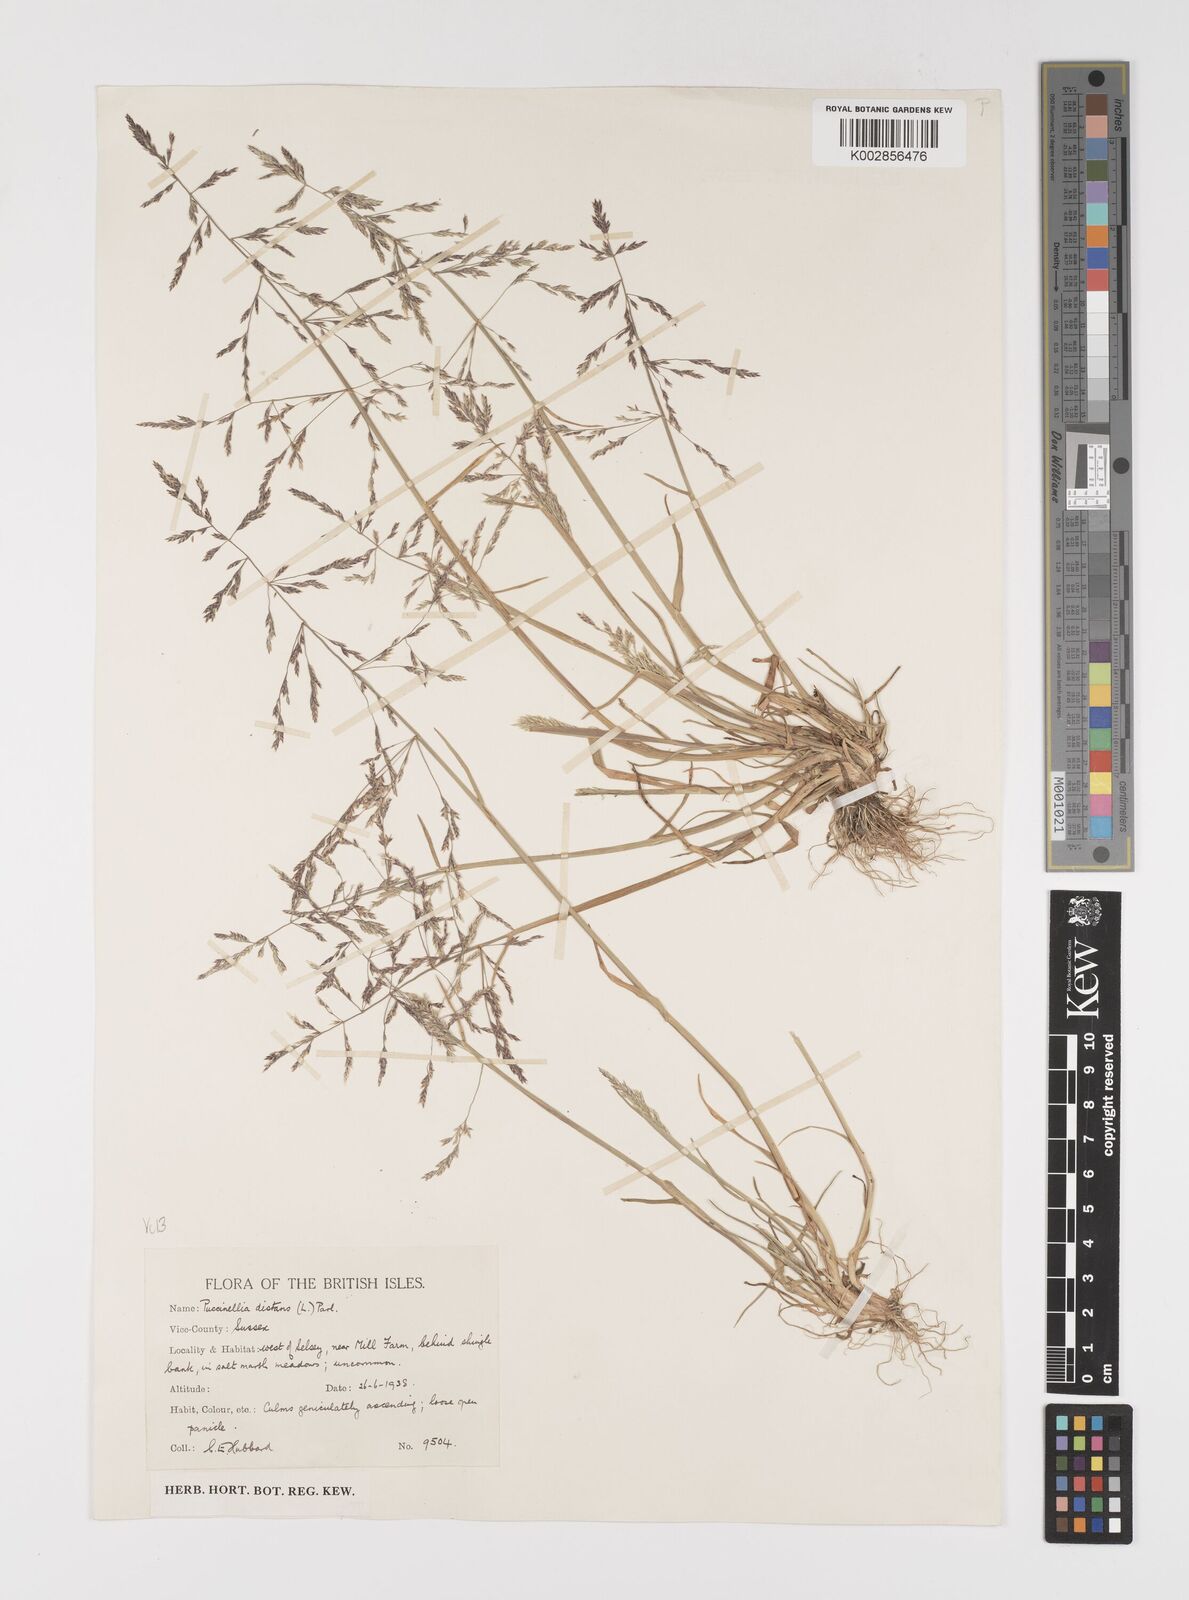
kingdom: Plantae
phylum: Tracheophyta
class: Liliopsida
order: Poales
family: Poaceae
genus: Puccinellia
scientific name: Puccinellia distans
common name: Weeping alkaligrass
